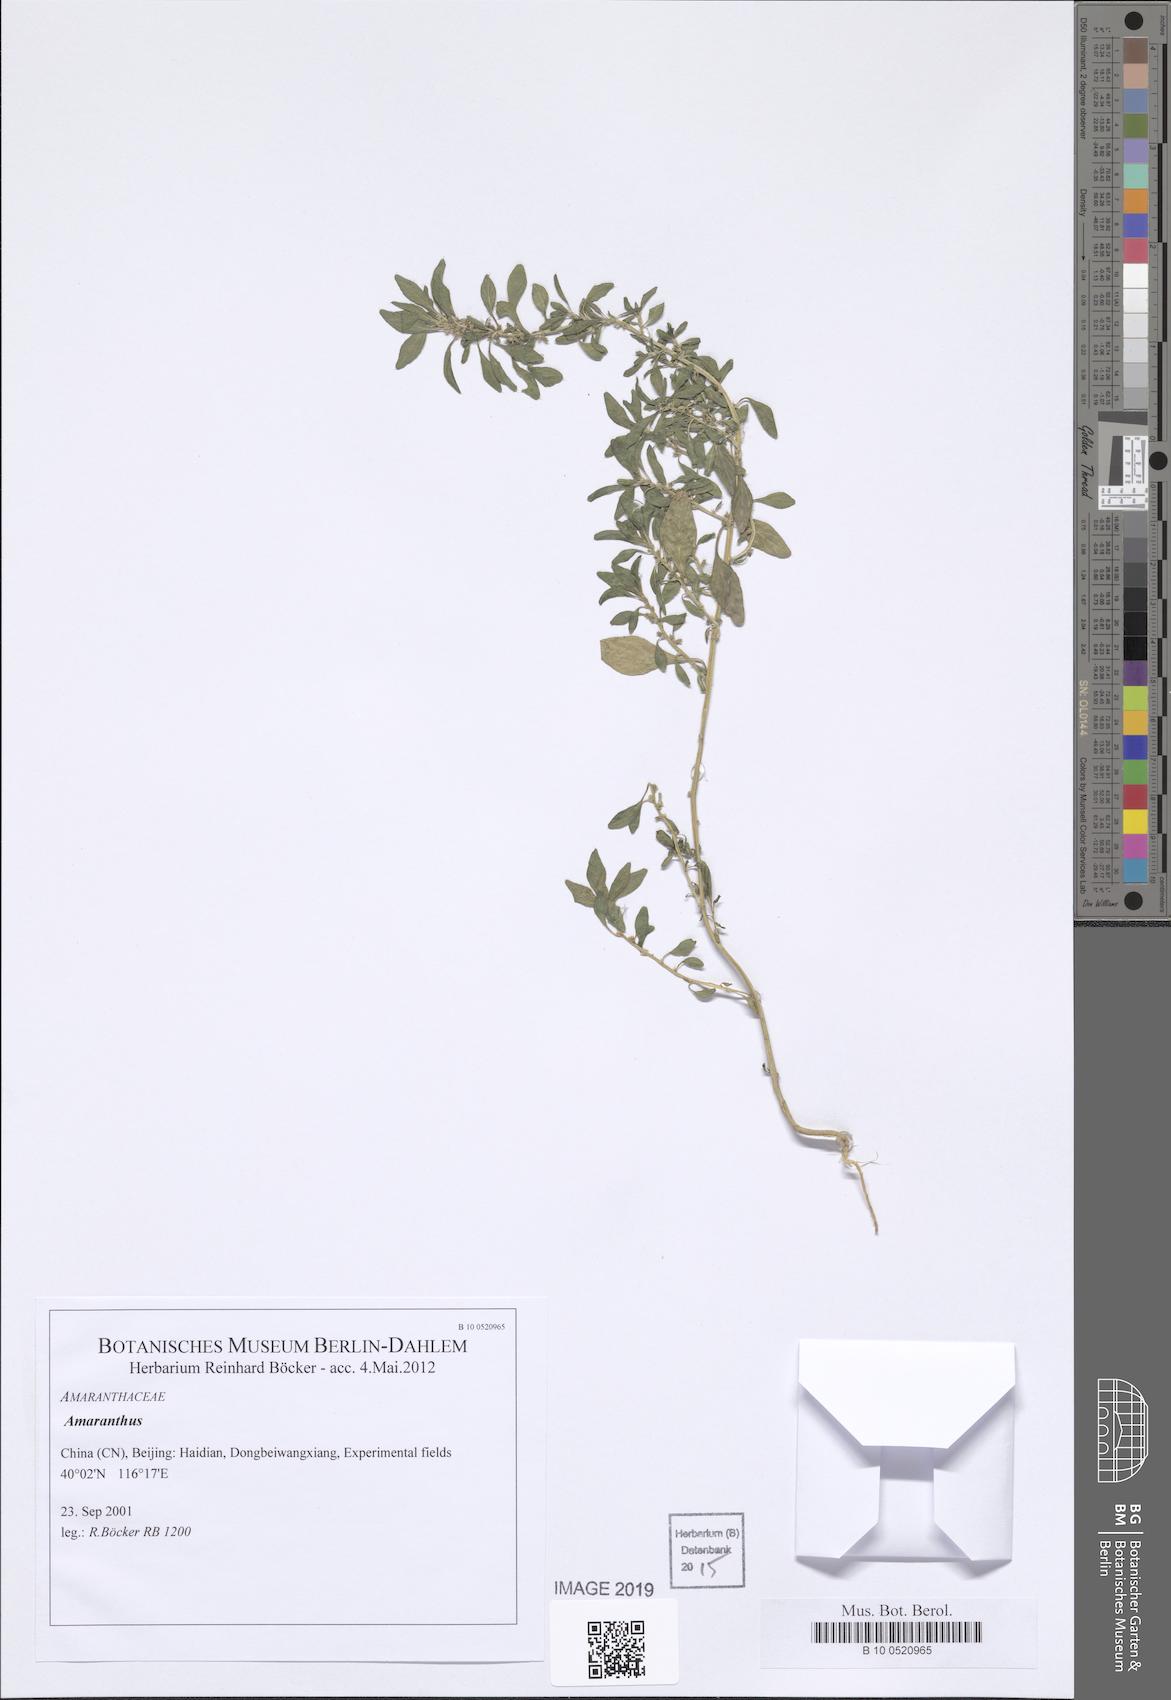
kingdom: Plantae
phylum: Tracheophyta
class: Magnoliopsida
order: Caryophyllales
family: Amaranthaceae
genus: Amaranthus
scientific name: Amaranthus
